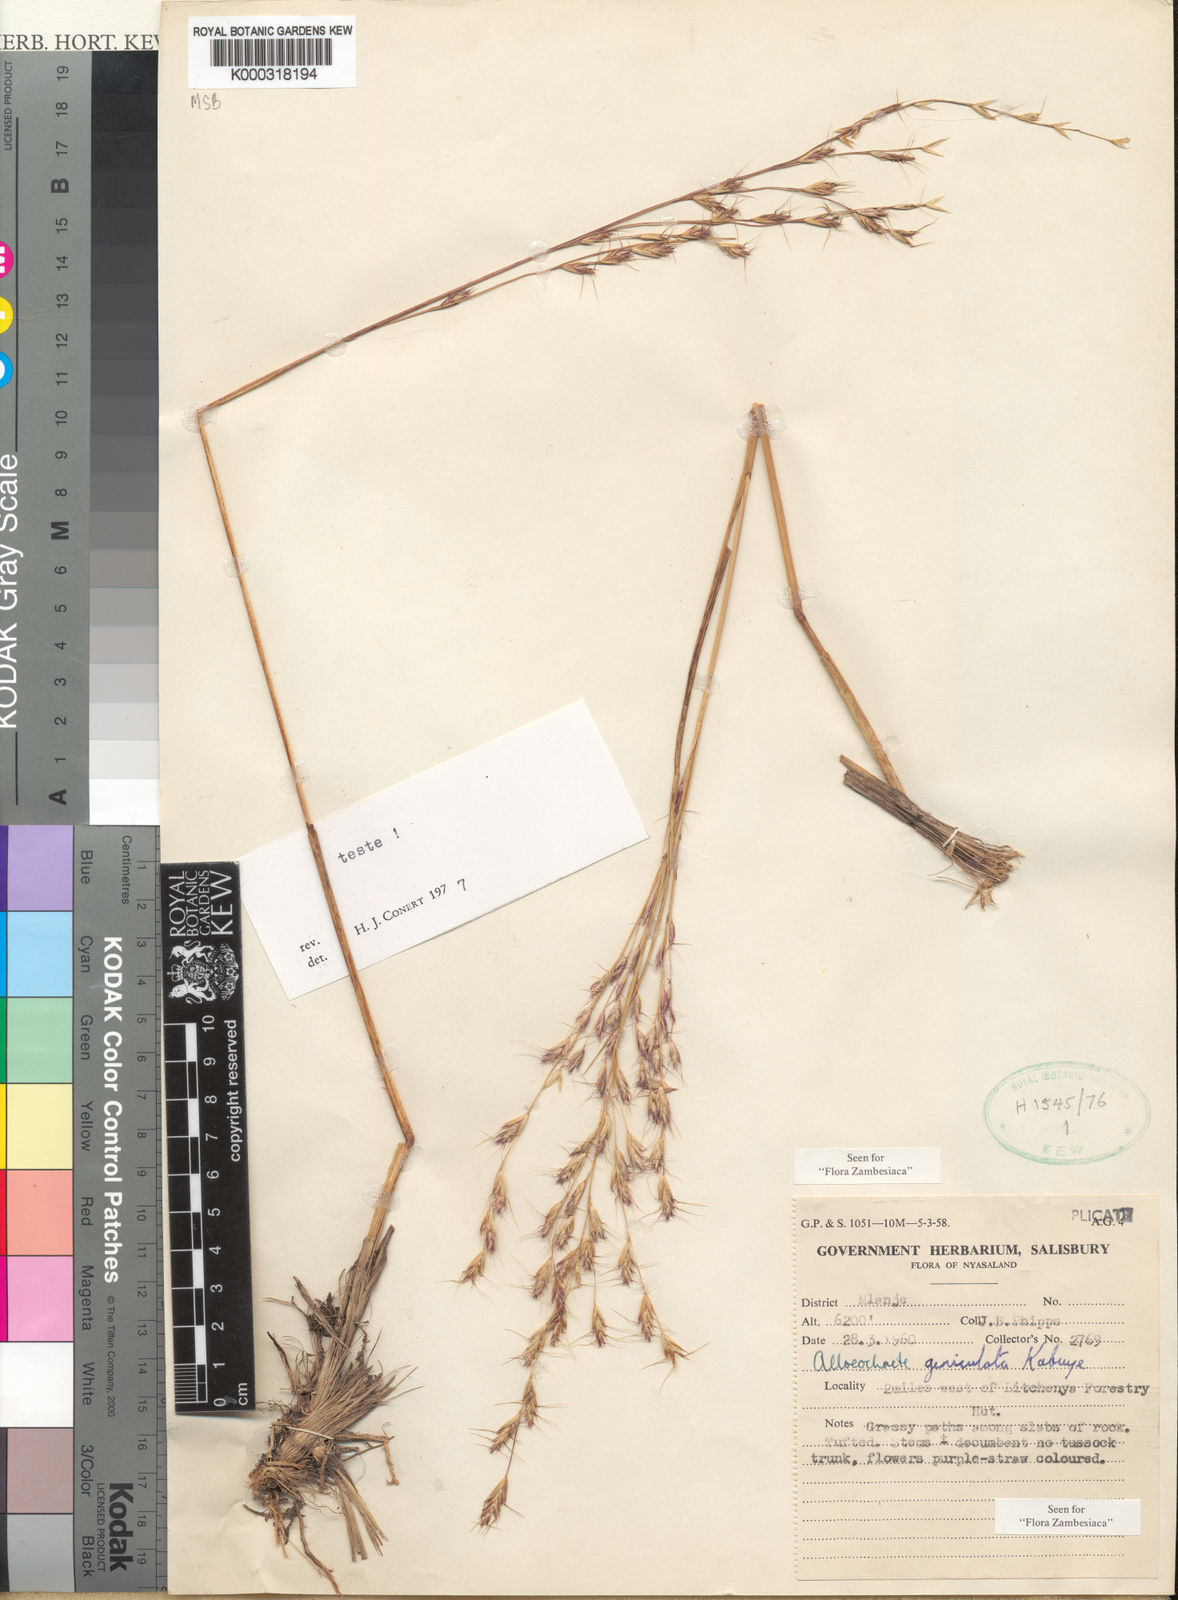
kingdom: Plantae
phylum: Tracheophyta
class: Liliopsida
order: Poales
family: Poaceae
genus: Alloeochaete
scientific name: Alloeochaete geniculata
